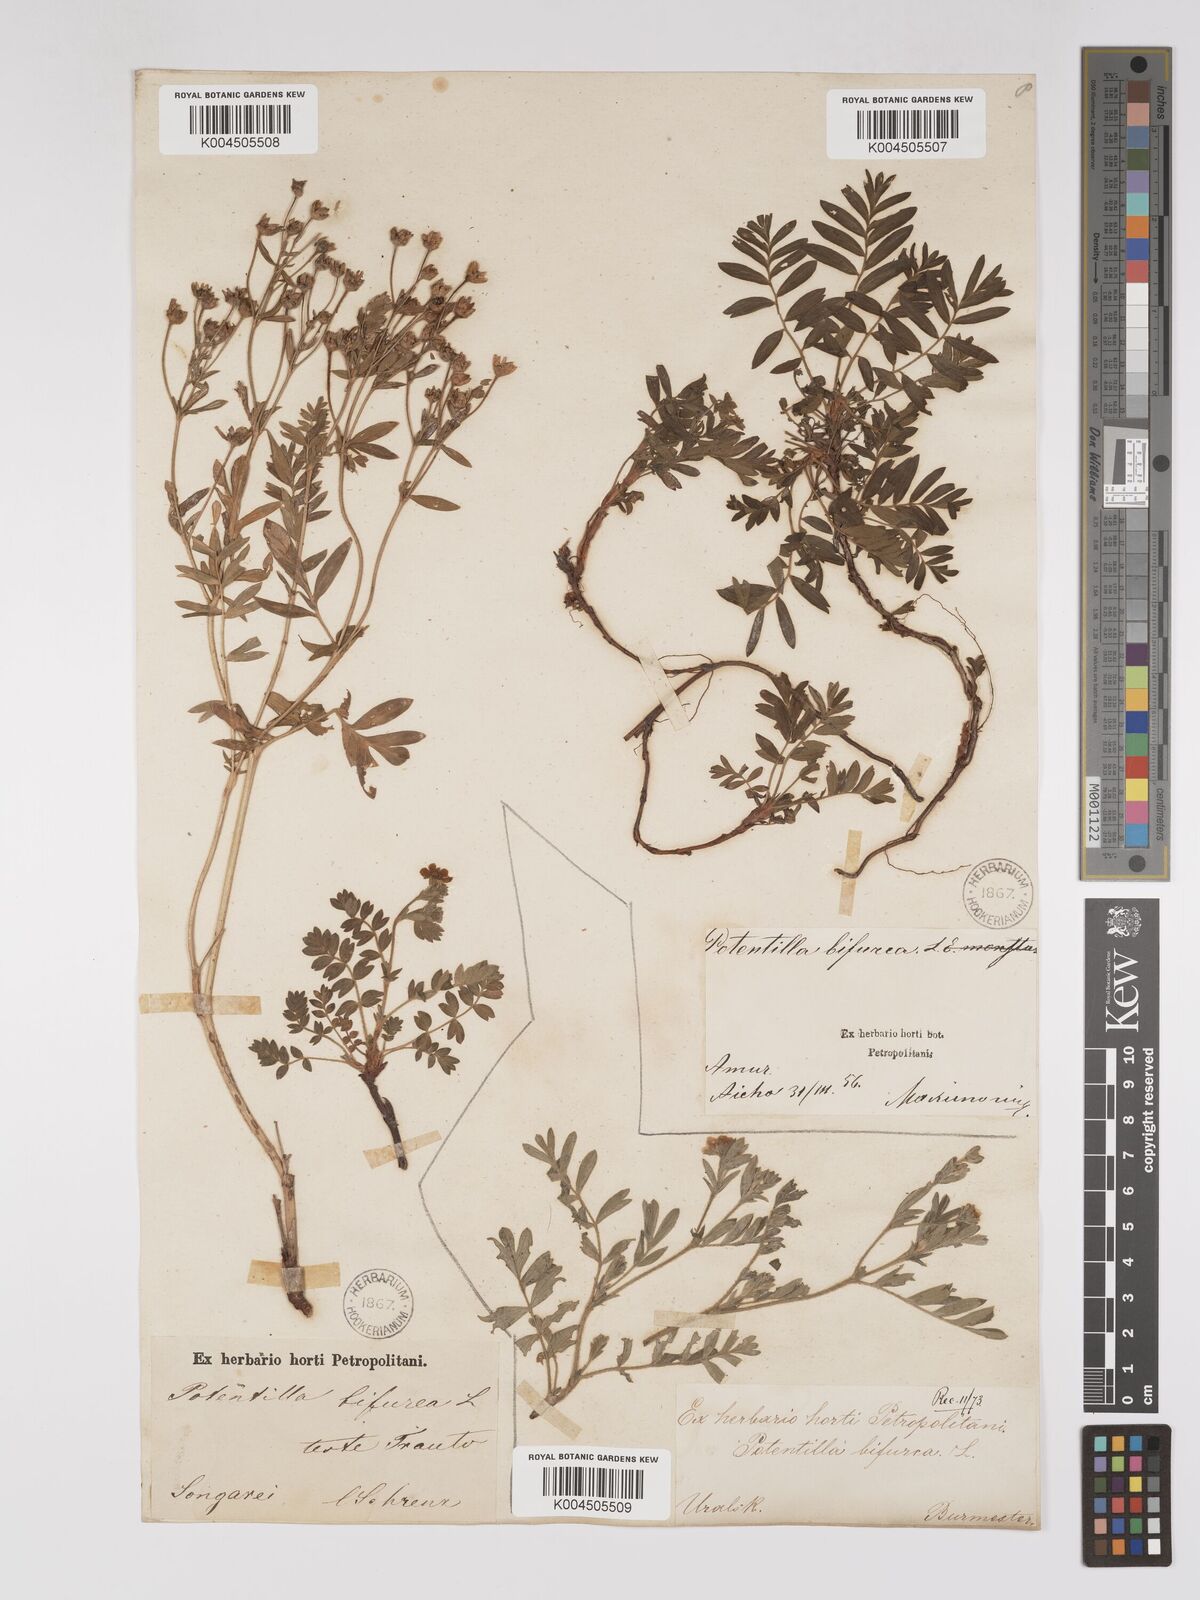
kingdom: Plantae
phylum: Tracheophyta
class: Magnoliopsida
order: Rosales
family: Rosaceae
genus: Sibbaldianthe
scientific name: Sibbaldianthe bifurca
